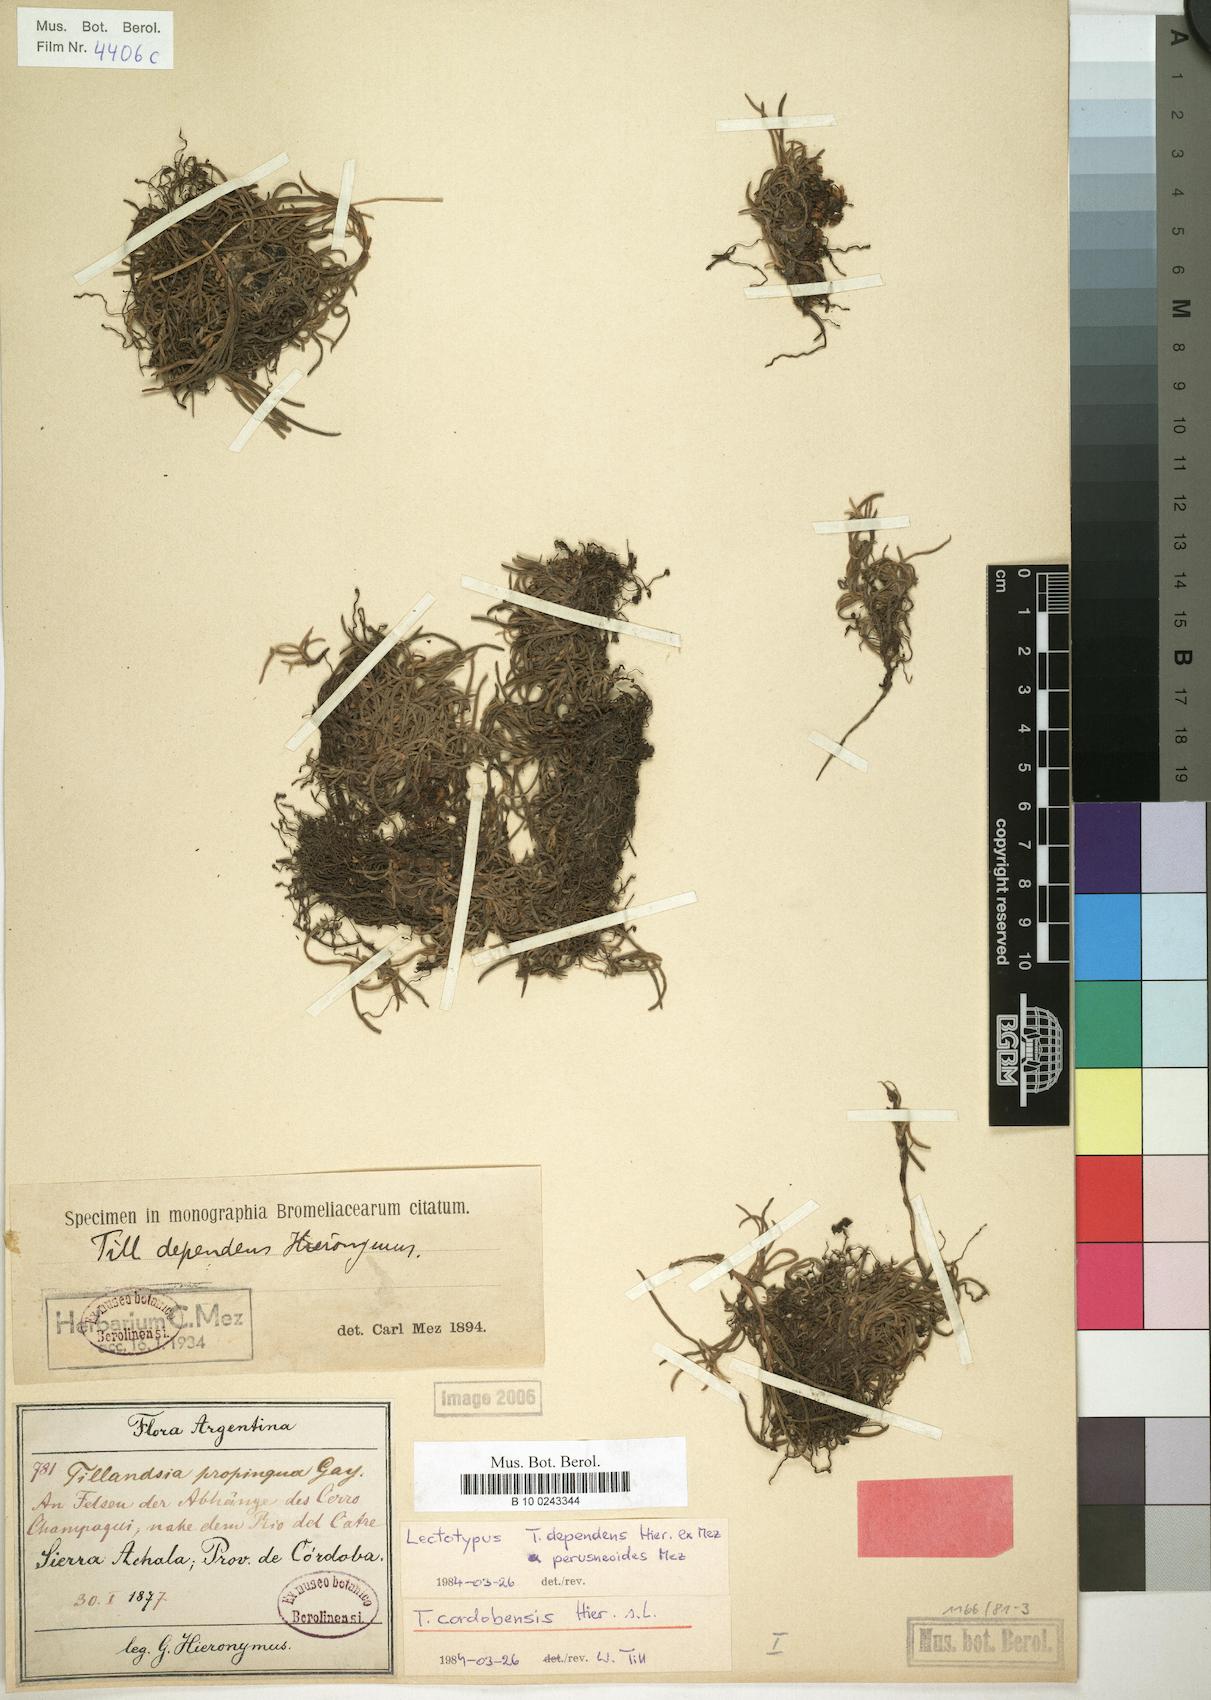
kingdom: Plantae
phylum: Tracheophyta
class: Liliopsida
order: Poales
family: Bromeliaceae
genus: Tillandsia
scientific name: Tillandsia virescens
